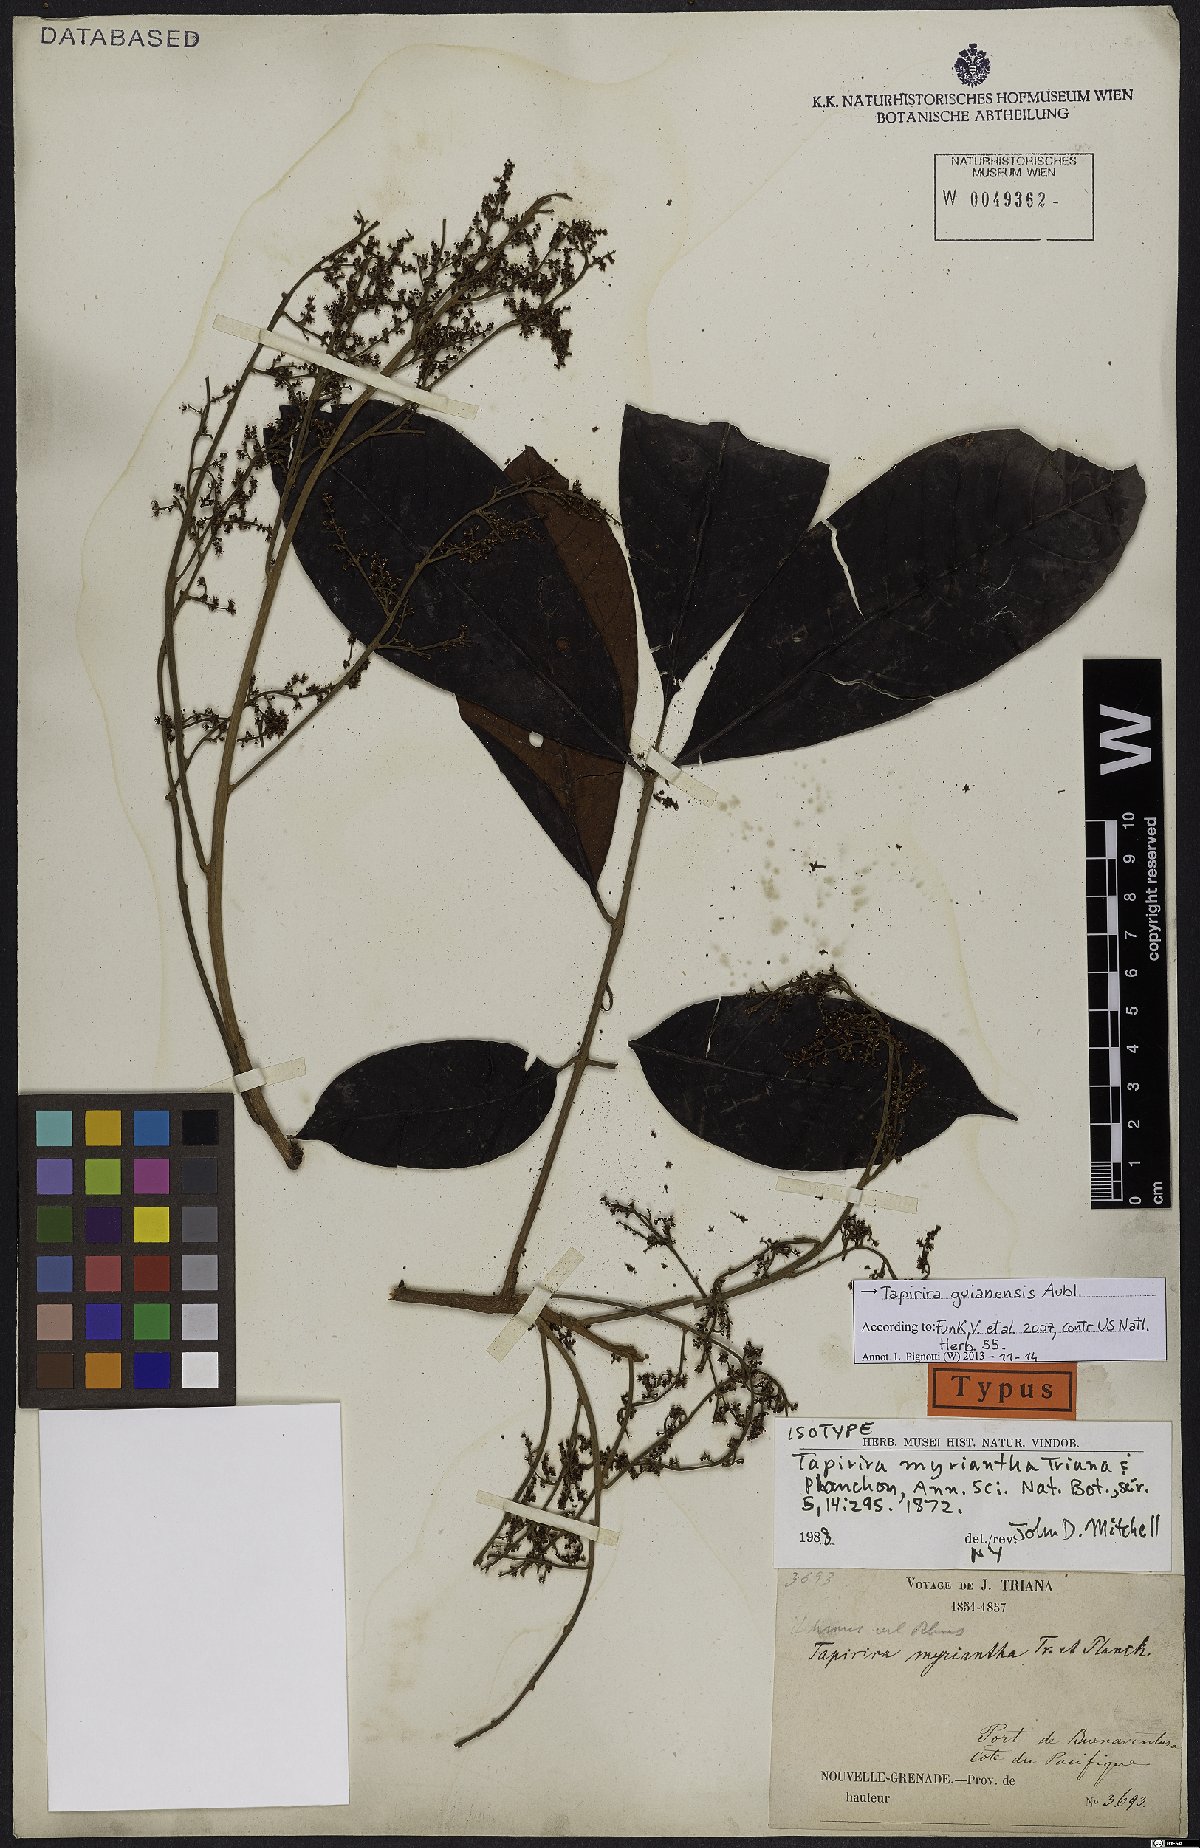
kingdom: Plantae
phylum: Tracheophyta
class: Magnoliopsida
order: Sapindales
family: Anacardiaceae
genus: Tapirira
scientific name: Tapirira guianensis
